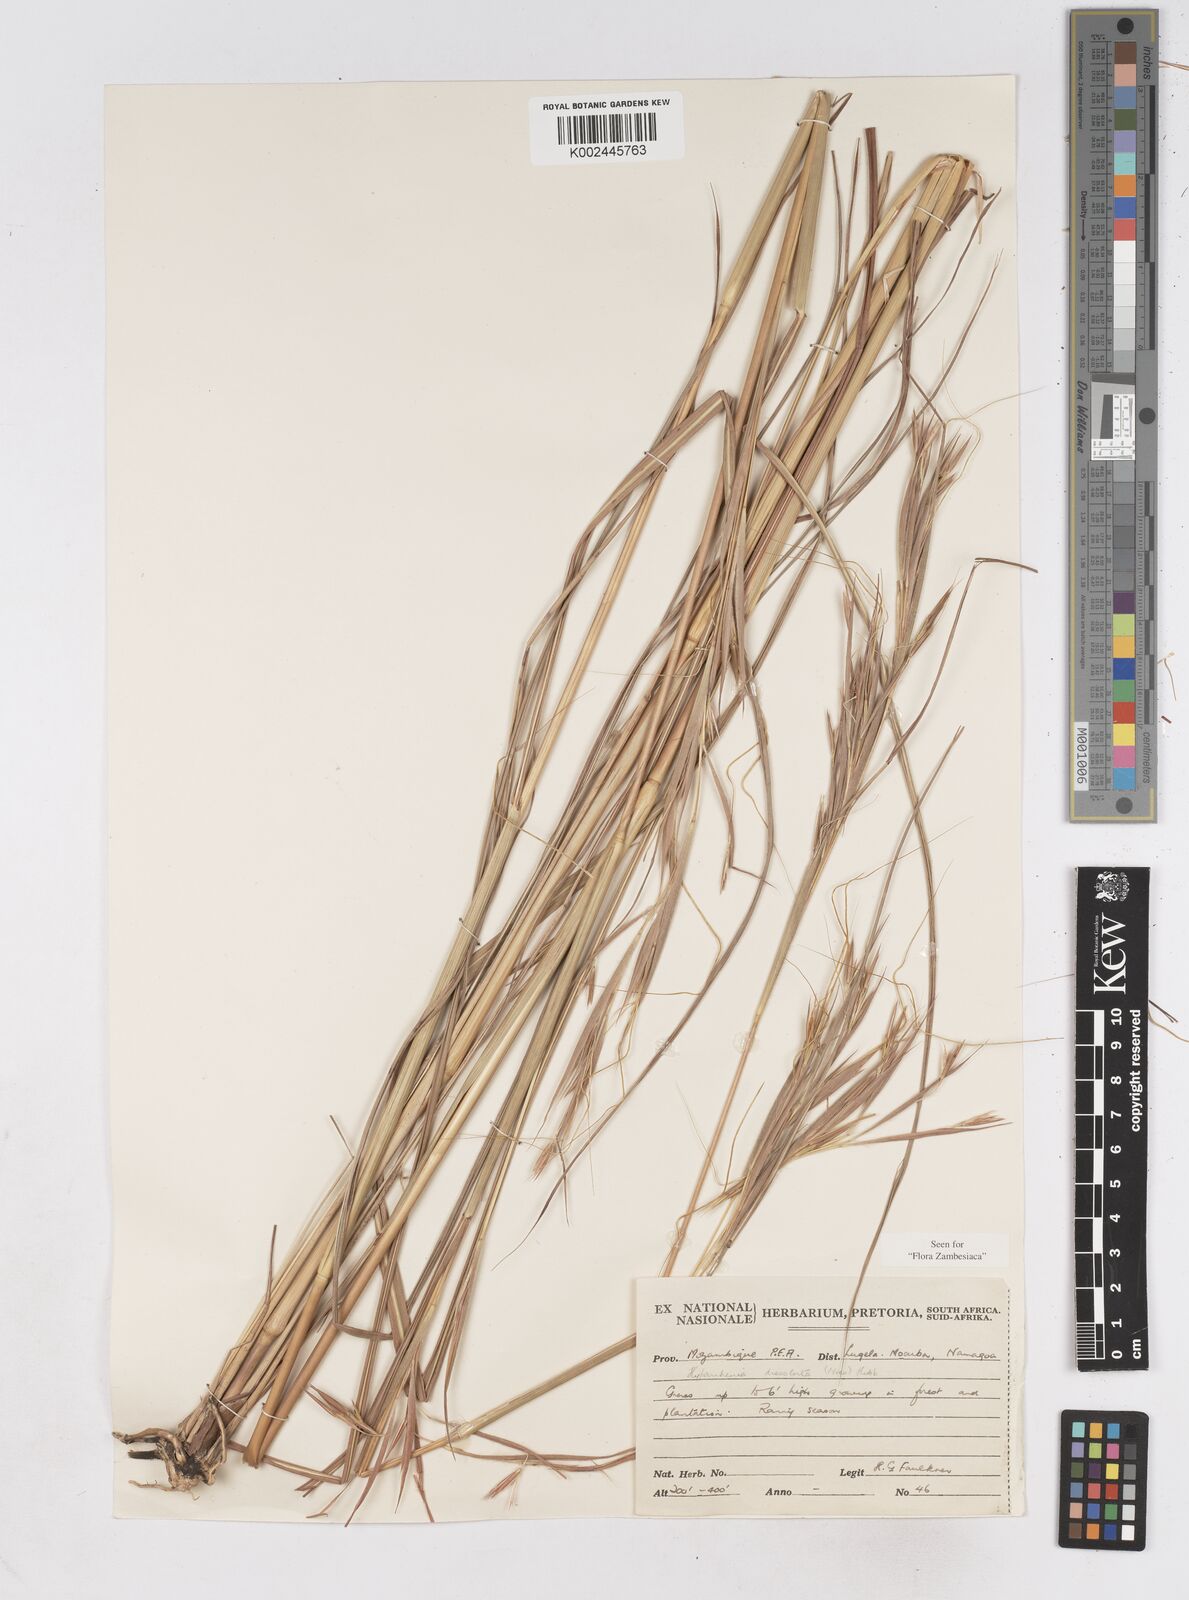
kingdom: Plantae
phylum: Tracheophyta
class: Liliopsida
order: Poales
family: Poaceae
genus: Hyperthelia
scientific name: Hyperthelia dissoluta
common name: Yellow thatching grass
